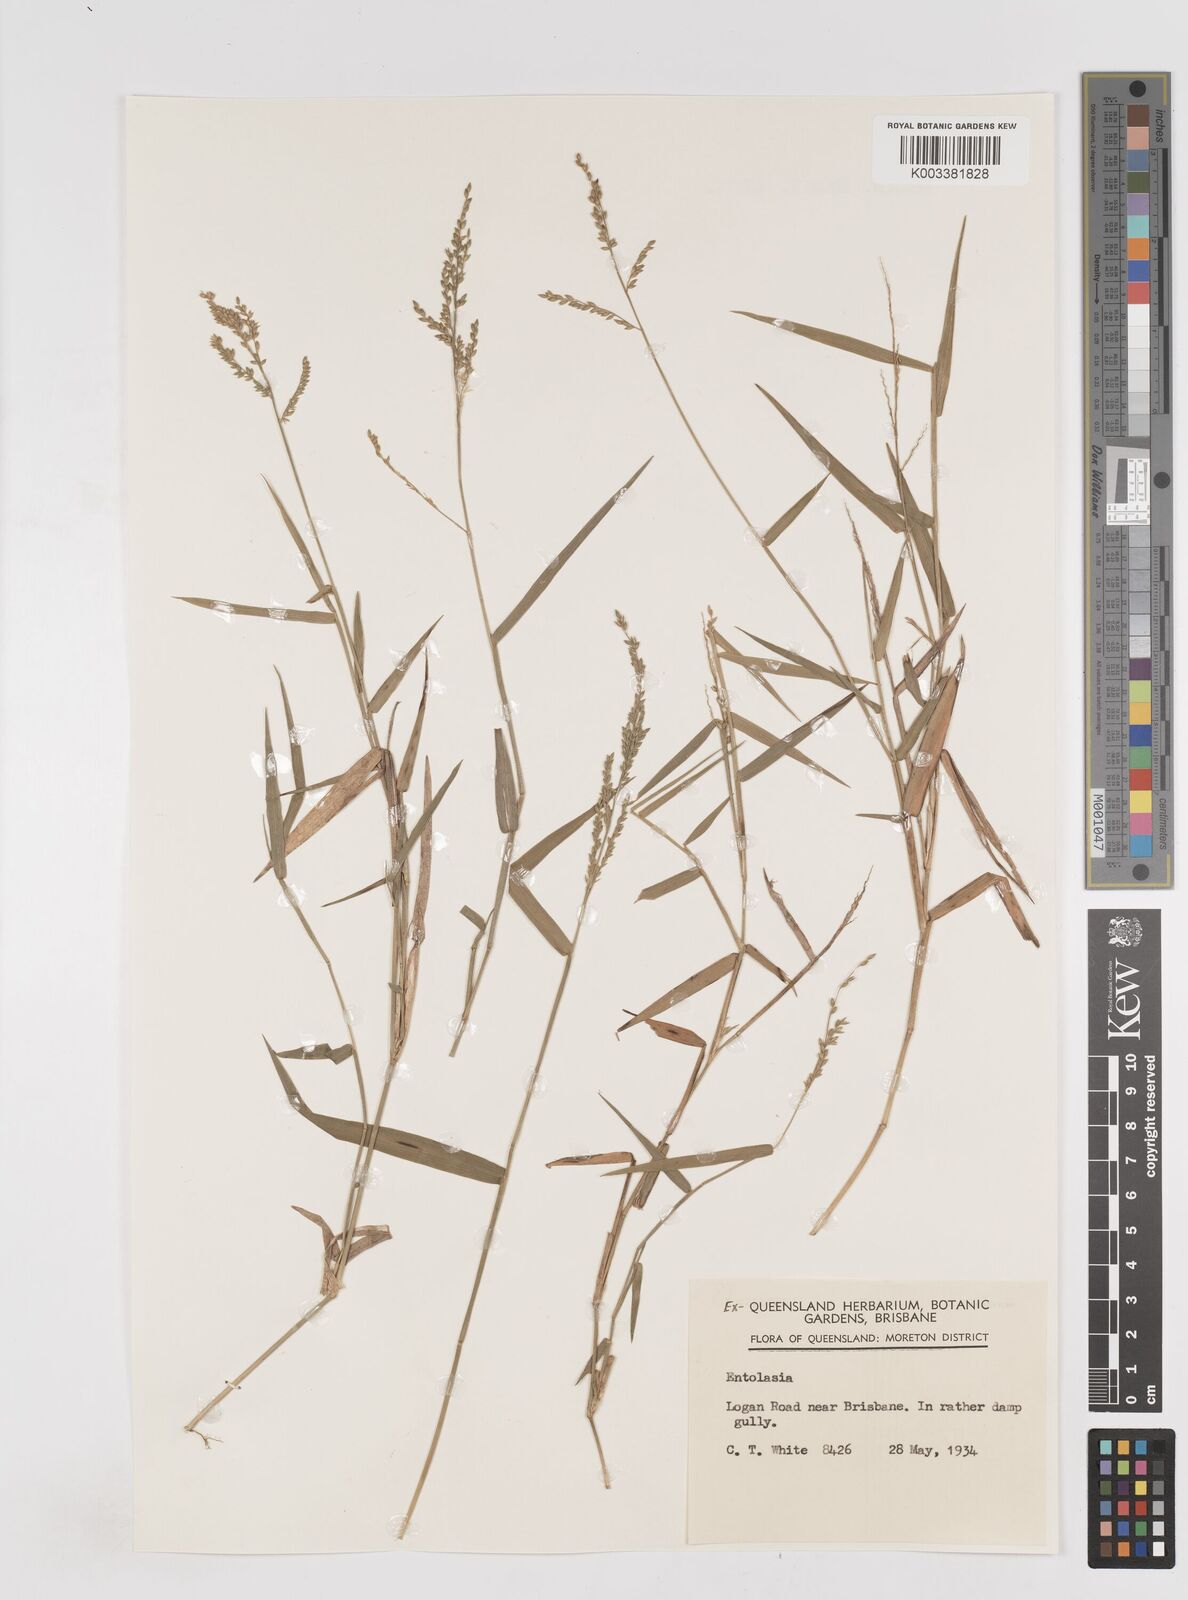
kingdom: Plantae
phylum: Tracheophyta
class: Liliopsida
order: Poales
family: Poaceae
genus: Entolasia
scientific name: Entolasia
